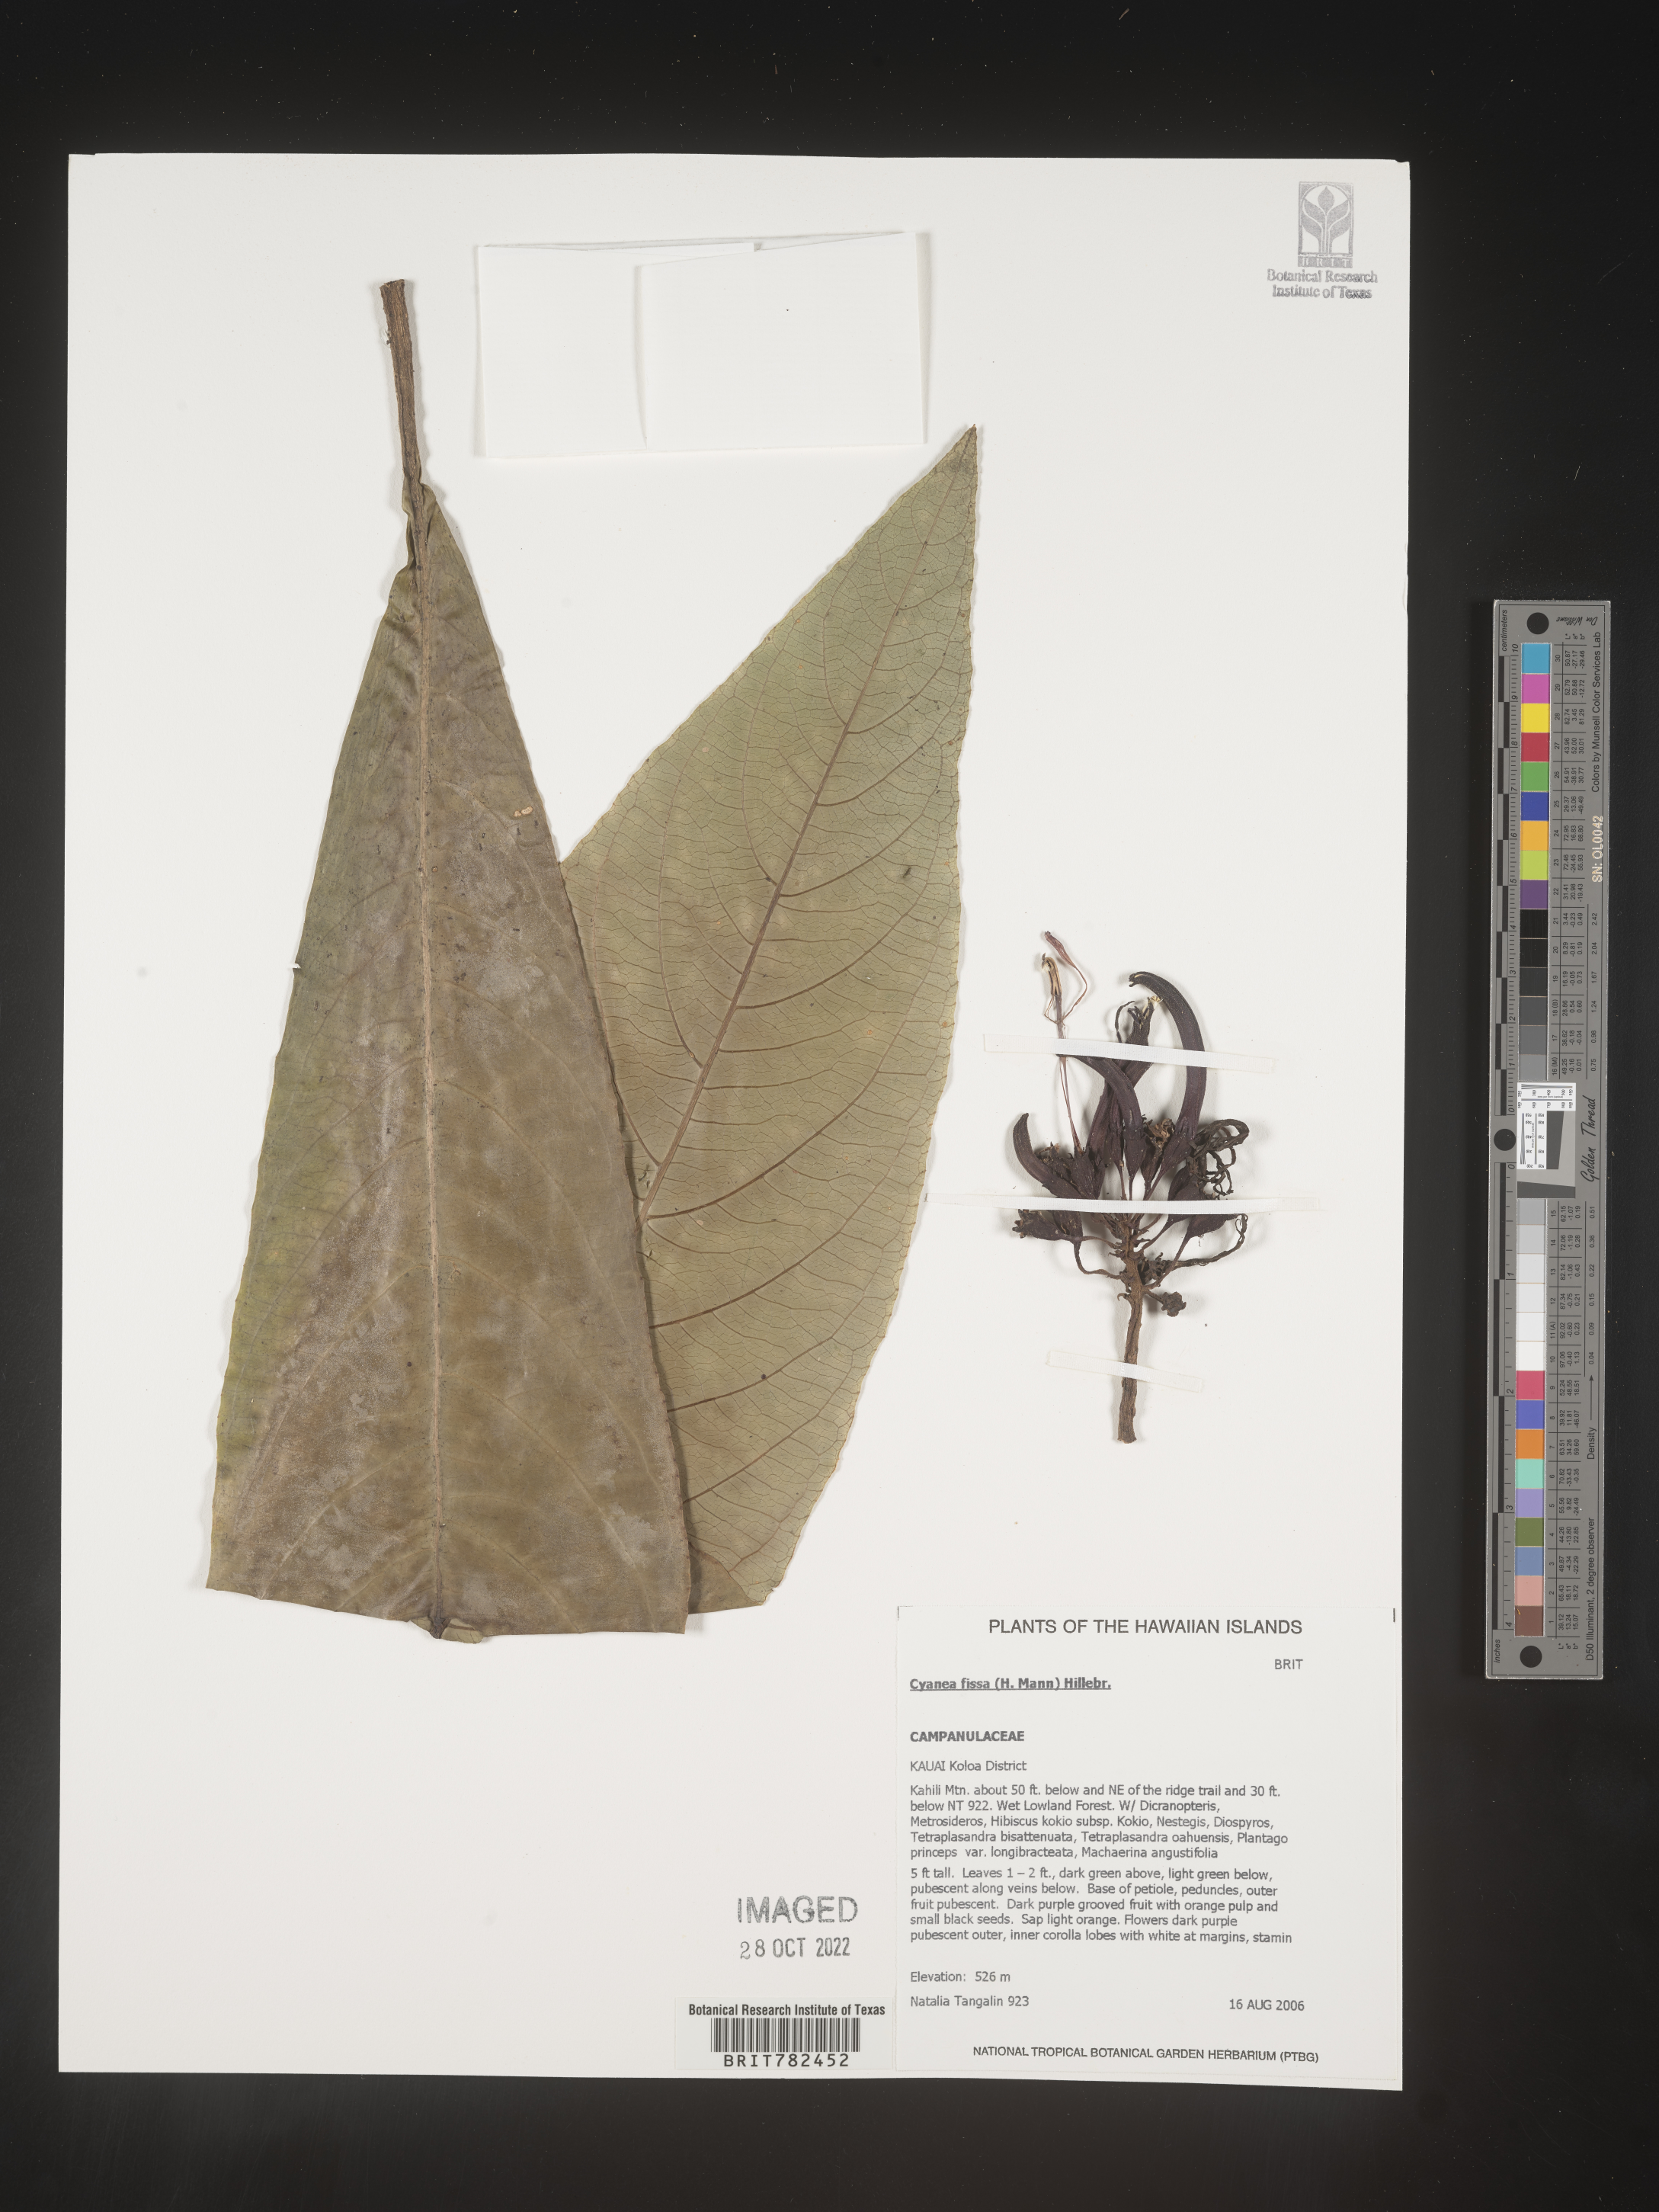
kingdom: Plantae
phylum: Tracheophyta
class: Magnoliopsida
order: Asterales
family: Campanulaceae
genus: Cyanea
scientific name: Cyanea
